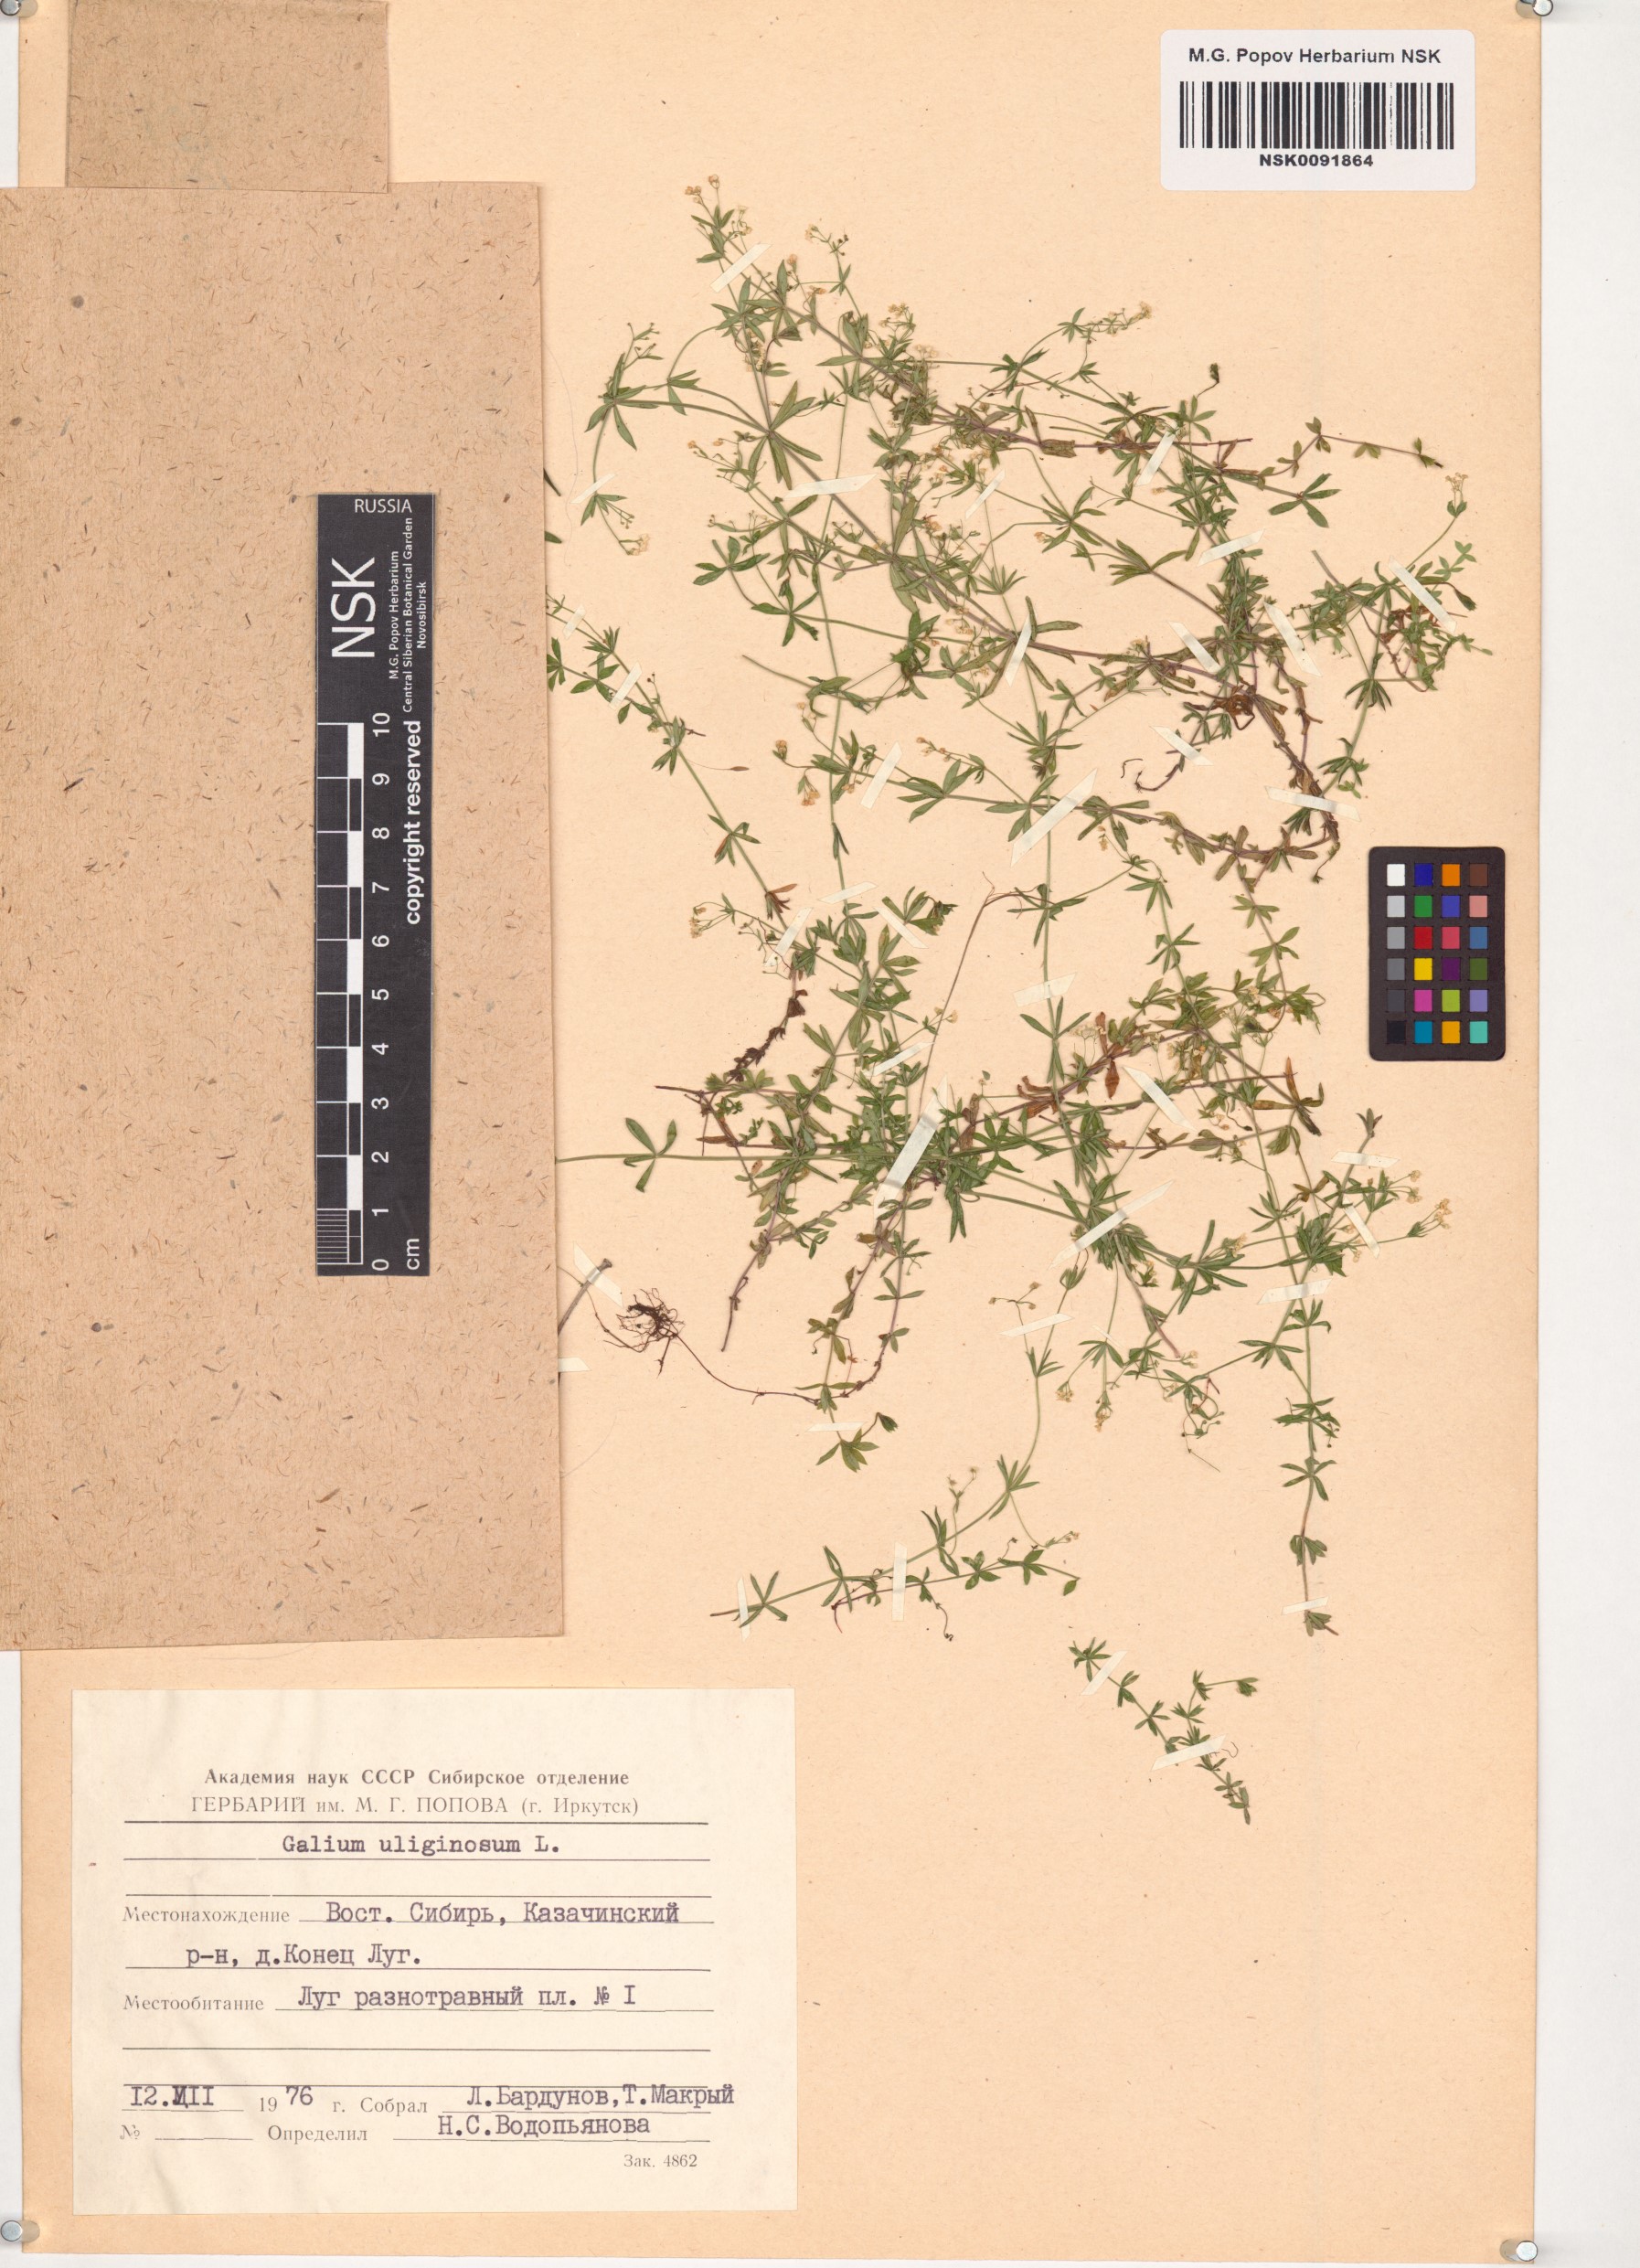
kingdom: Plantae
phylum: Tracheophyta
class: Magnoliopsida
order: Gentianales
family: Rubiaceae
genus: Galium
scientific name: Galium uliginosum
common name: Fen bedstraw
